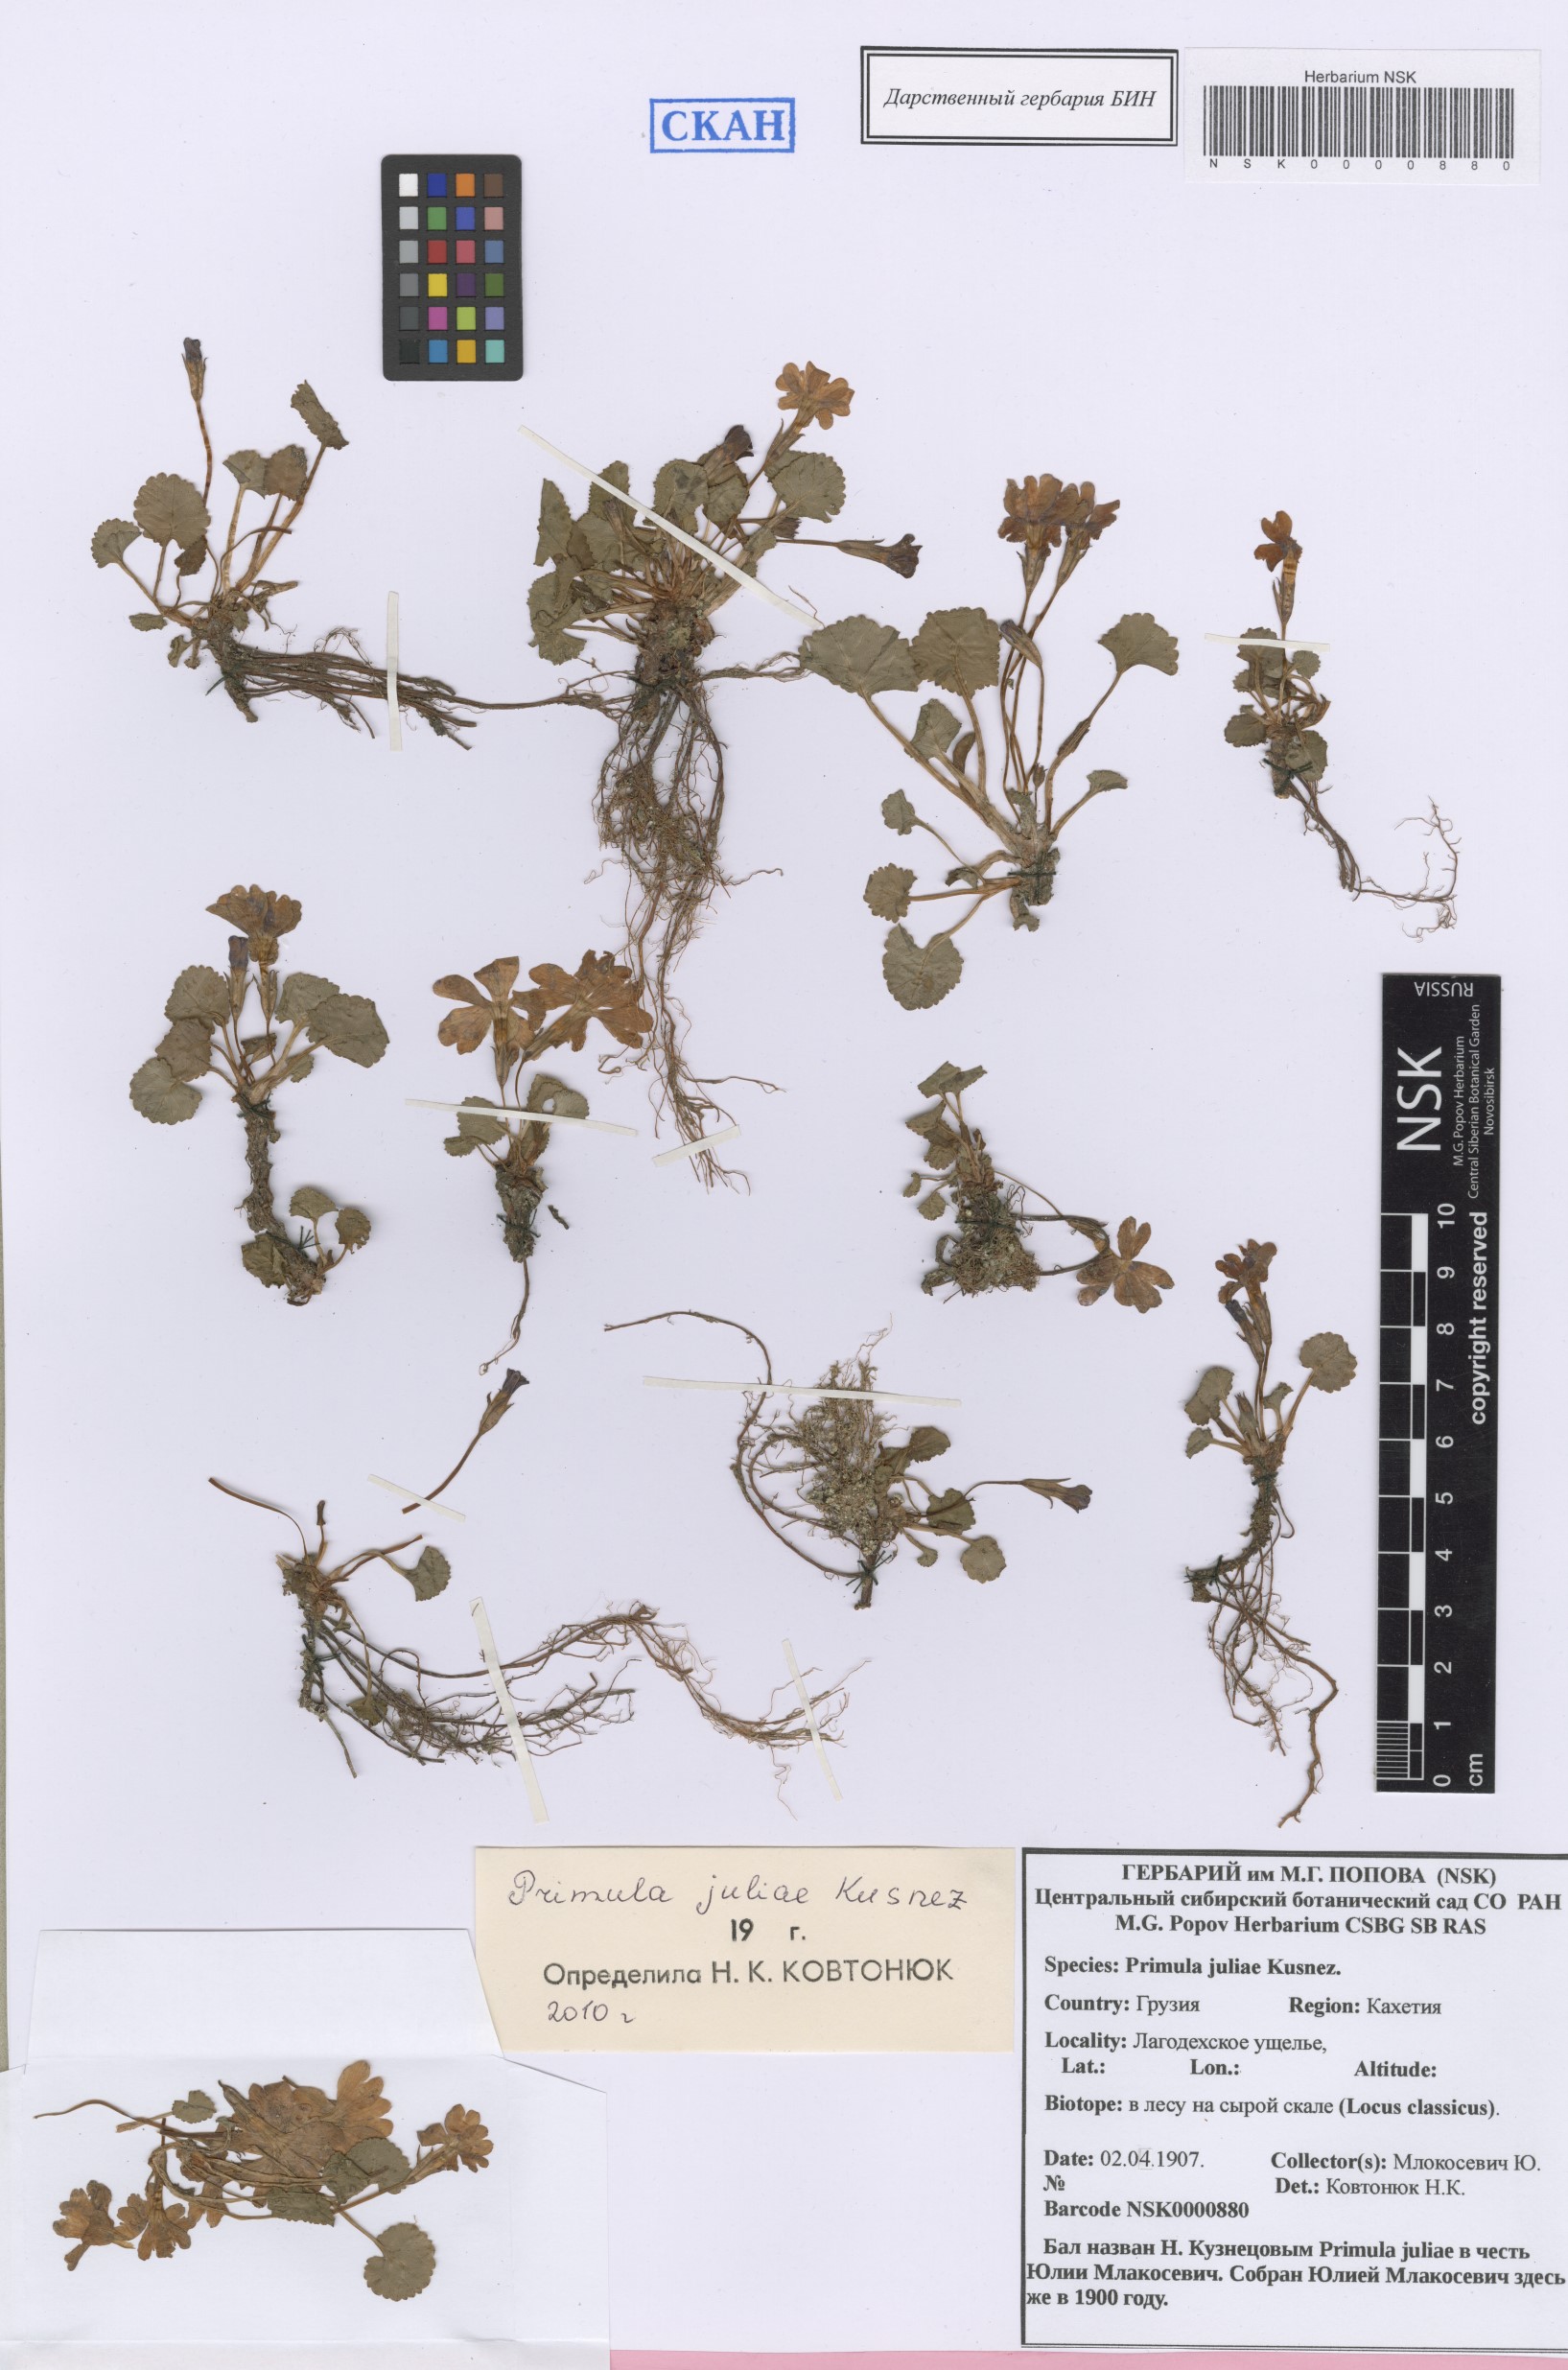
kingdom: Plantae
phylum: Tracheophyta
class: Magnoliopsida
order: Ericales
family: Primulaceae
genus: Primula
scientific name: Primula juliae
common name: Julia's primrose
